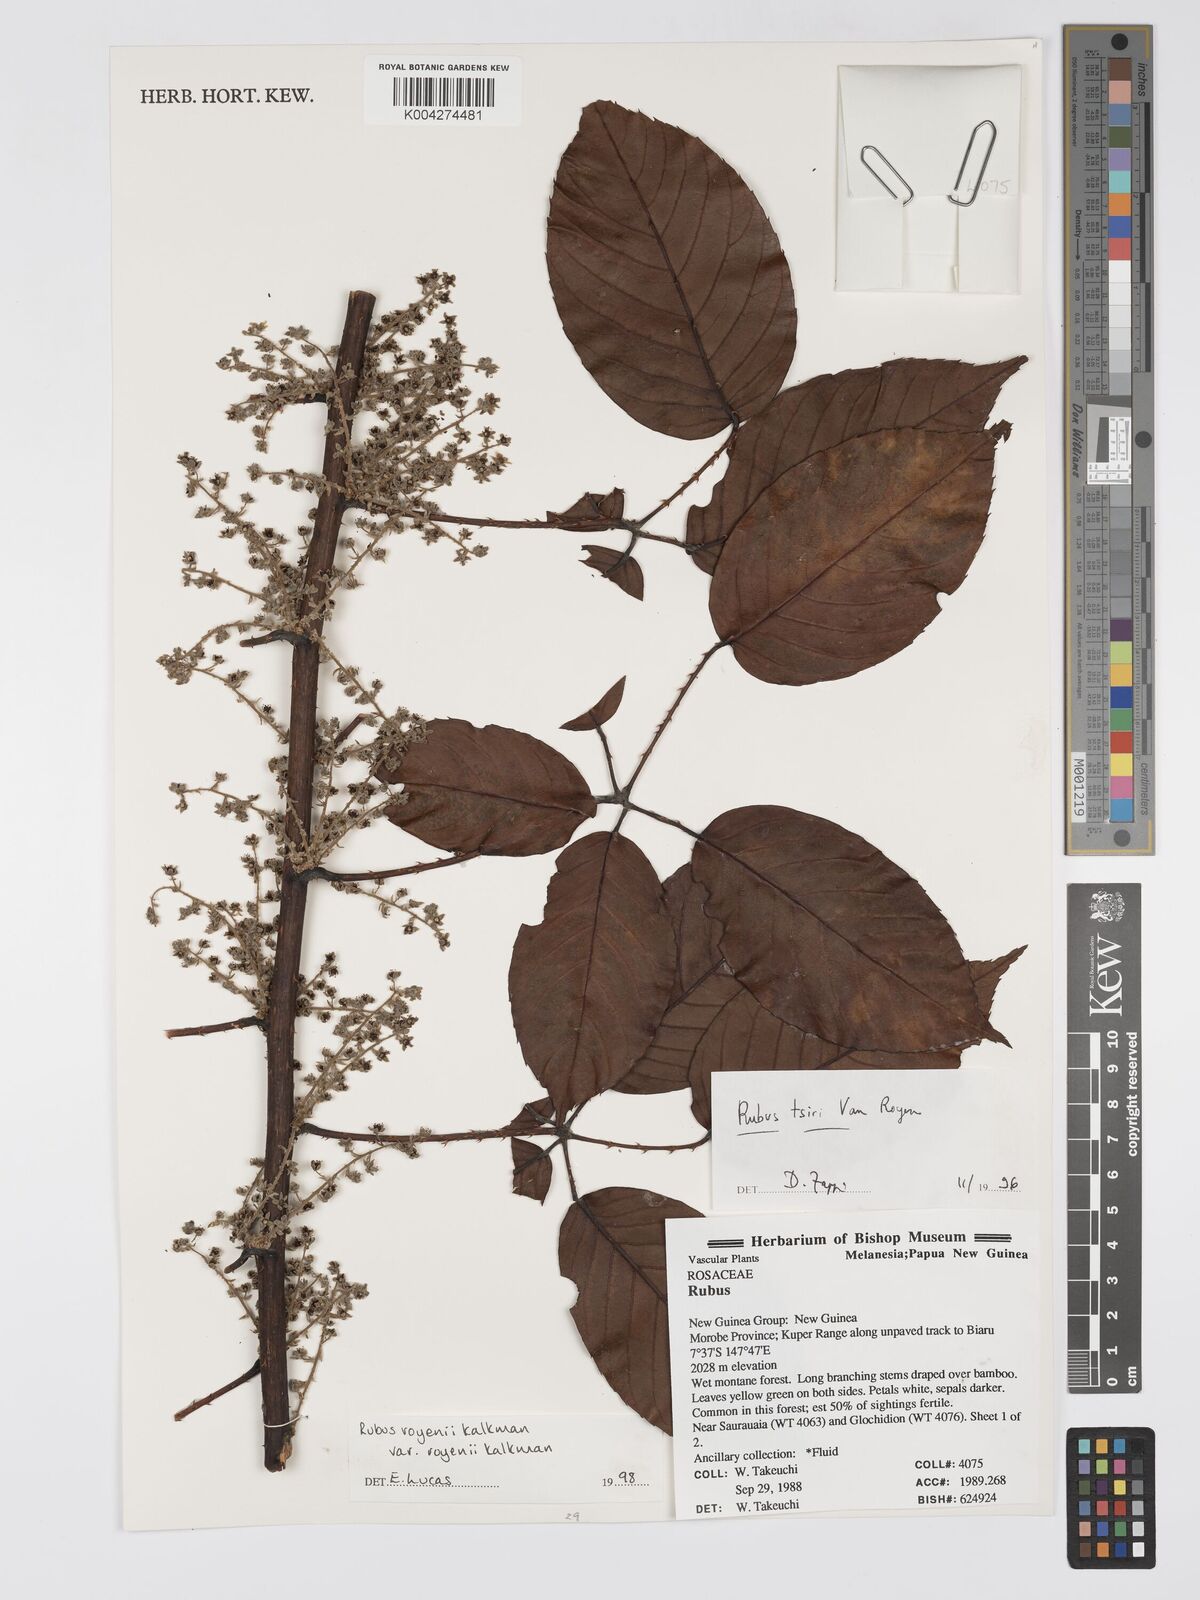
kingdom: Plantae
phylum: Tracheophyta
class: Magnoliopsida
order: Rosales
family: Rosaceae
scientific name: Rosaceae
